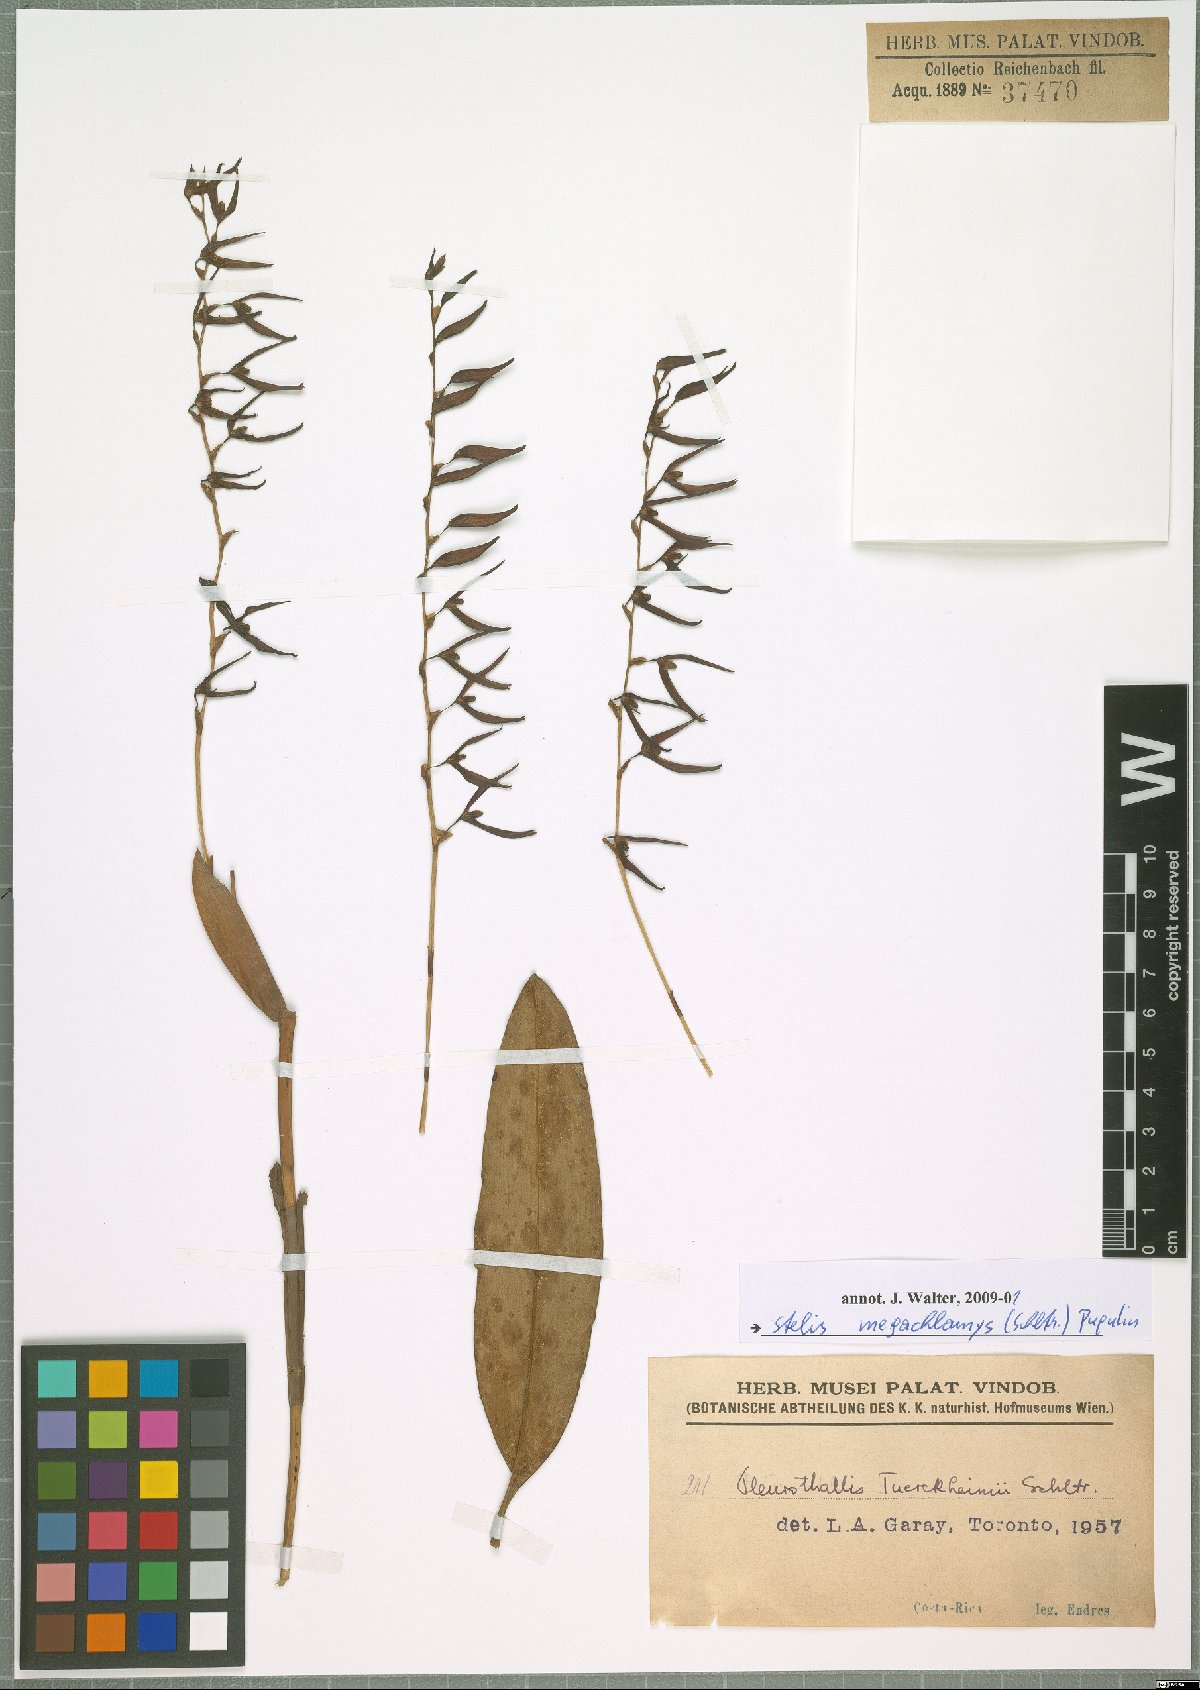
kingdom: Plantae
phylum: Tracheophyta
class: Liliopsida
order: Asparagales
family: Orchidaceae
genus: Stelis
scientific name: Stelis megachlamys
